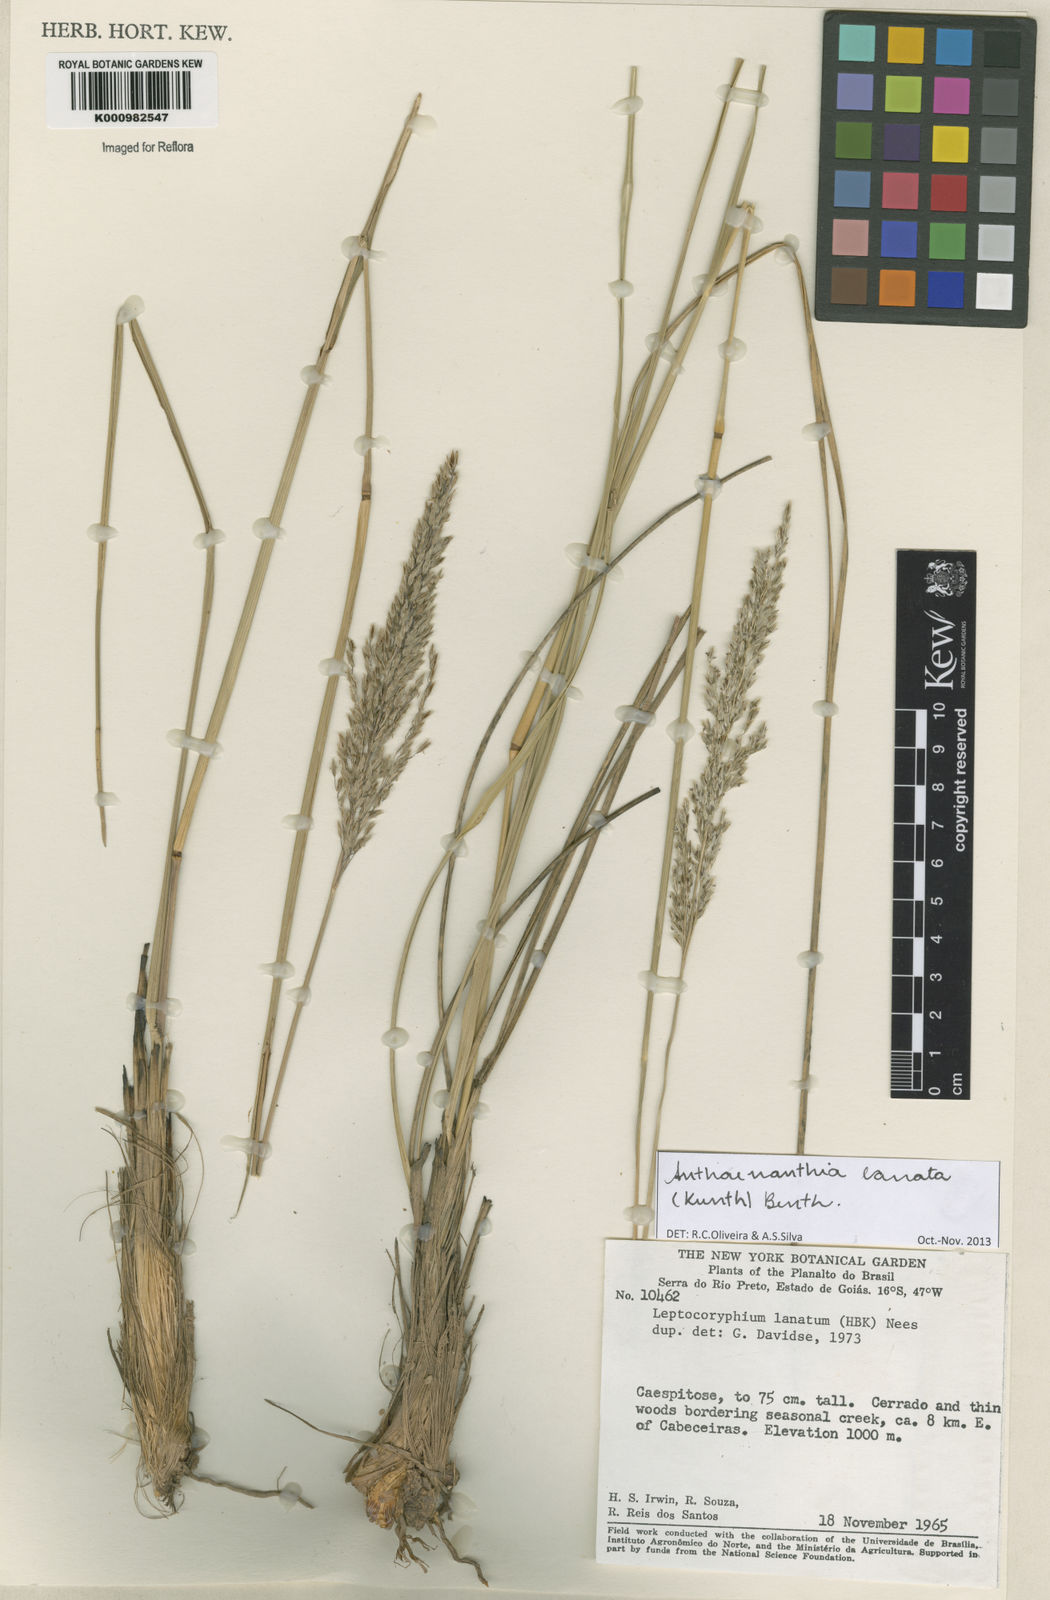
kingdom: Plantae
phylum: Tracheophyta
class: Liliopsida
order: Poales
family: Poaceae
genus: Anthenantia
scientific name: Anthenantia lanata
